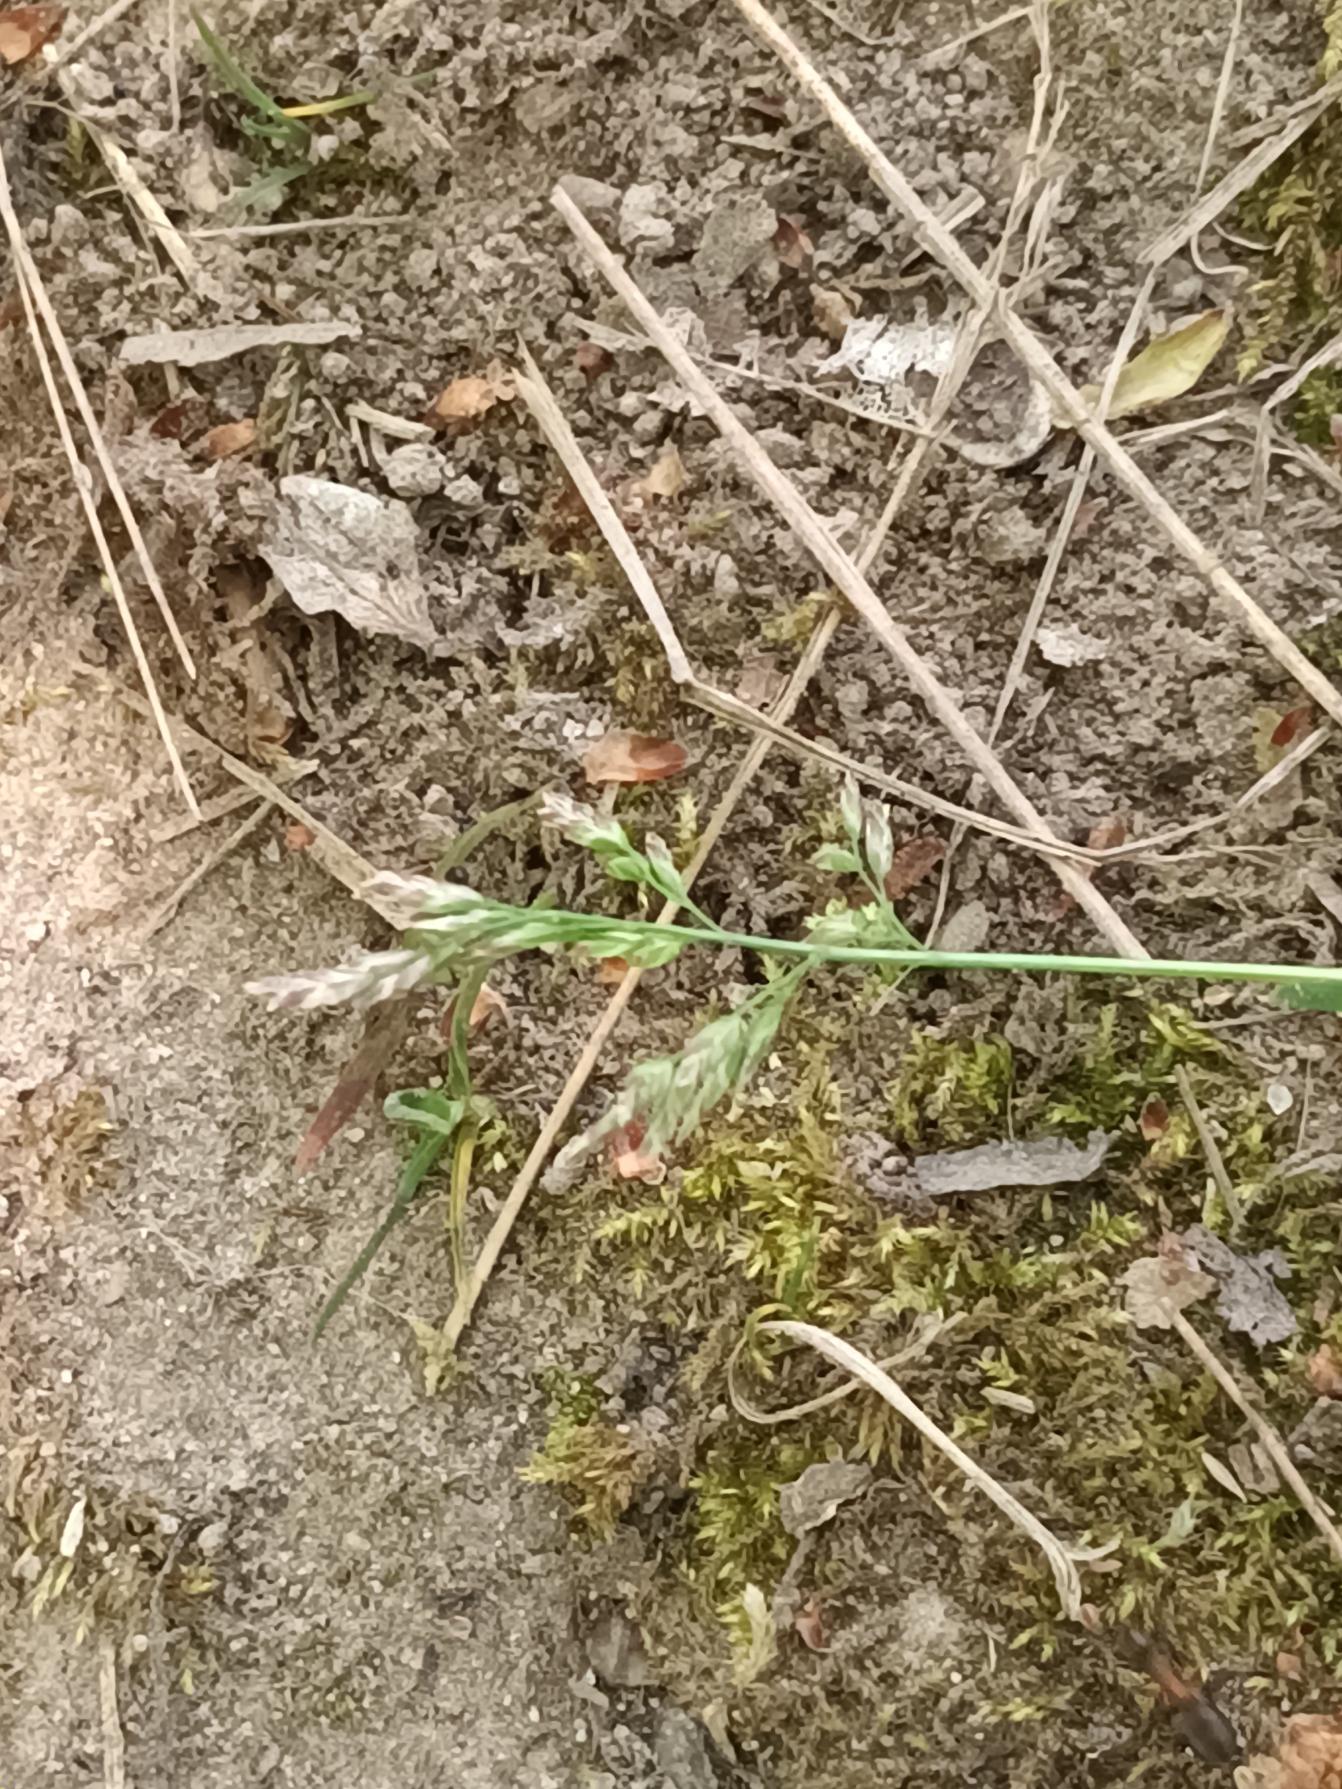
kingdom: Plantae
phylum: Tracheophyta
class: Liliopsida
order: Poales
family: Poaceae
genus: Poa
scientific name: Poa annua
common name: Enårig rapgræs
